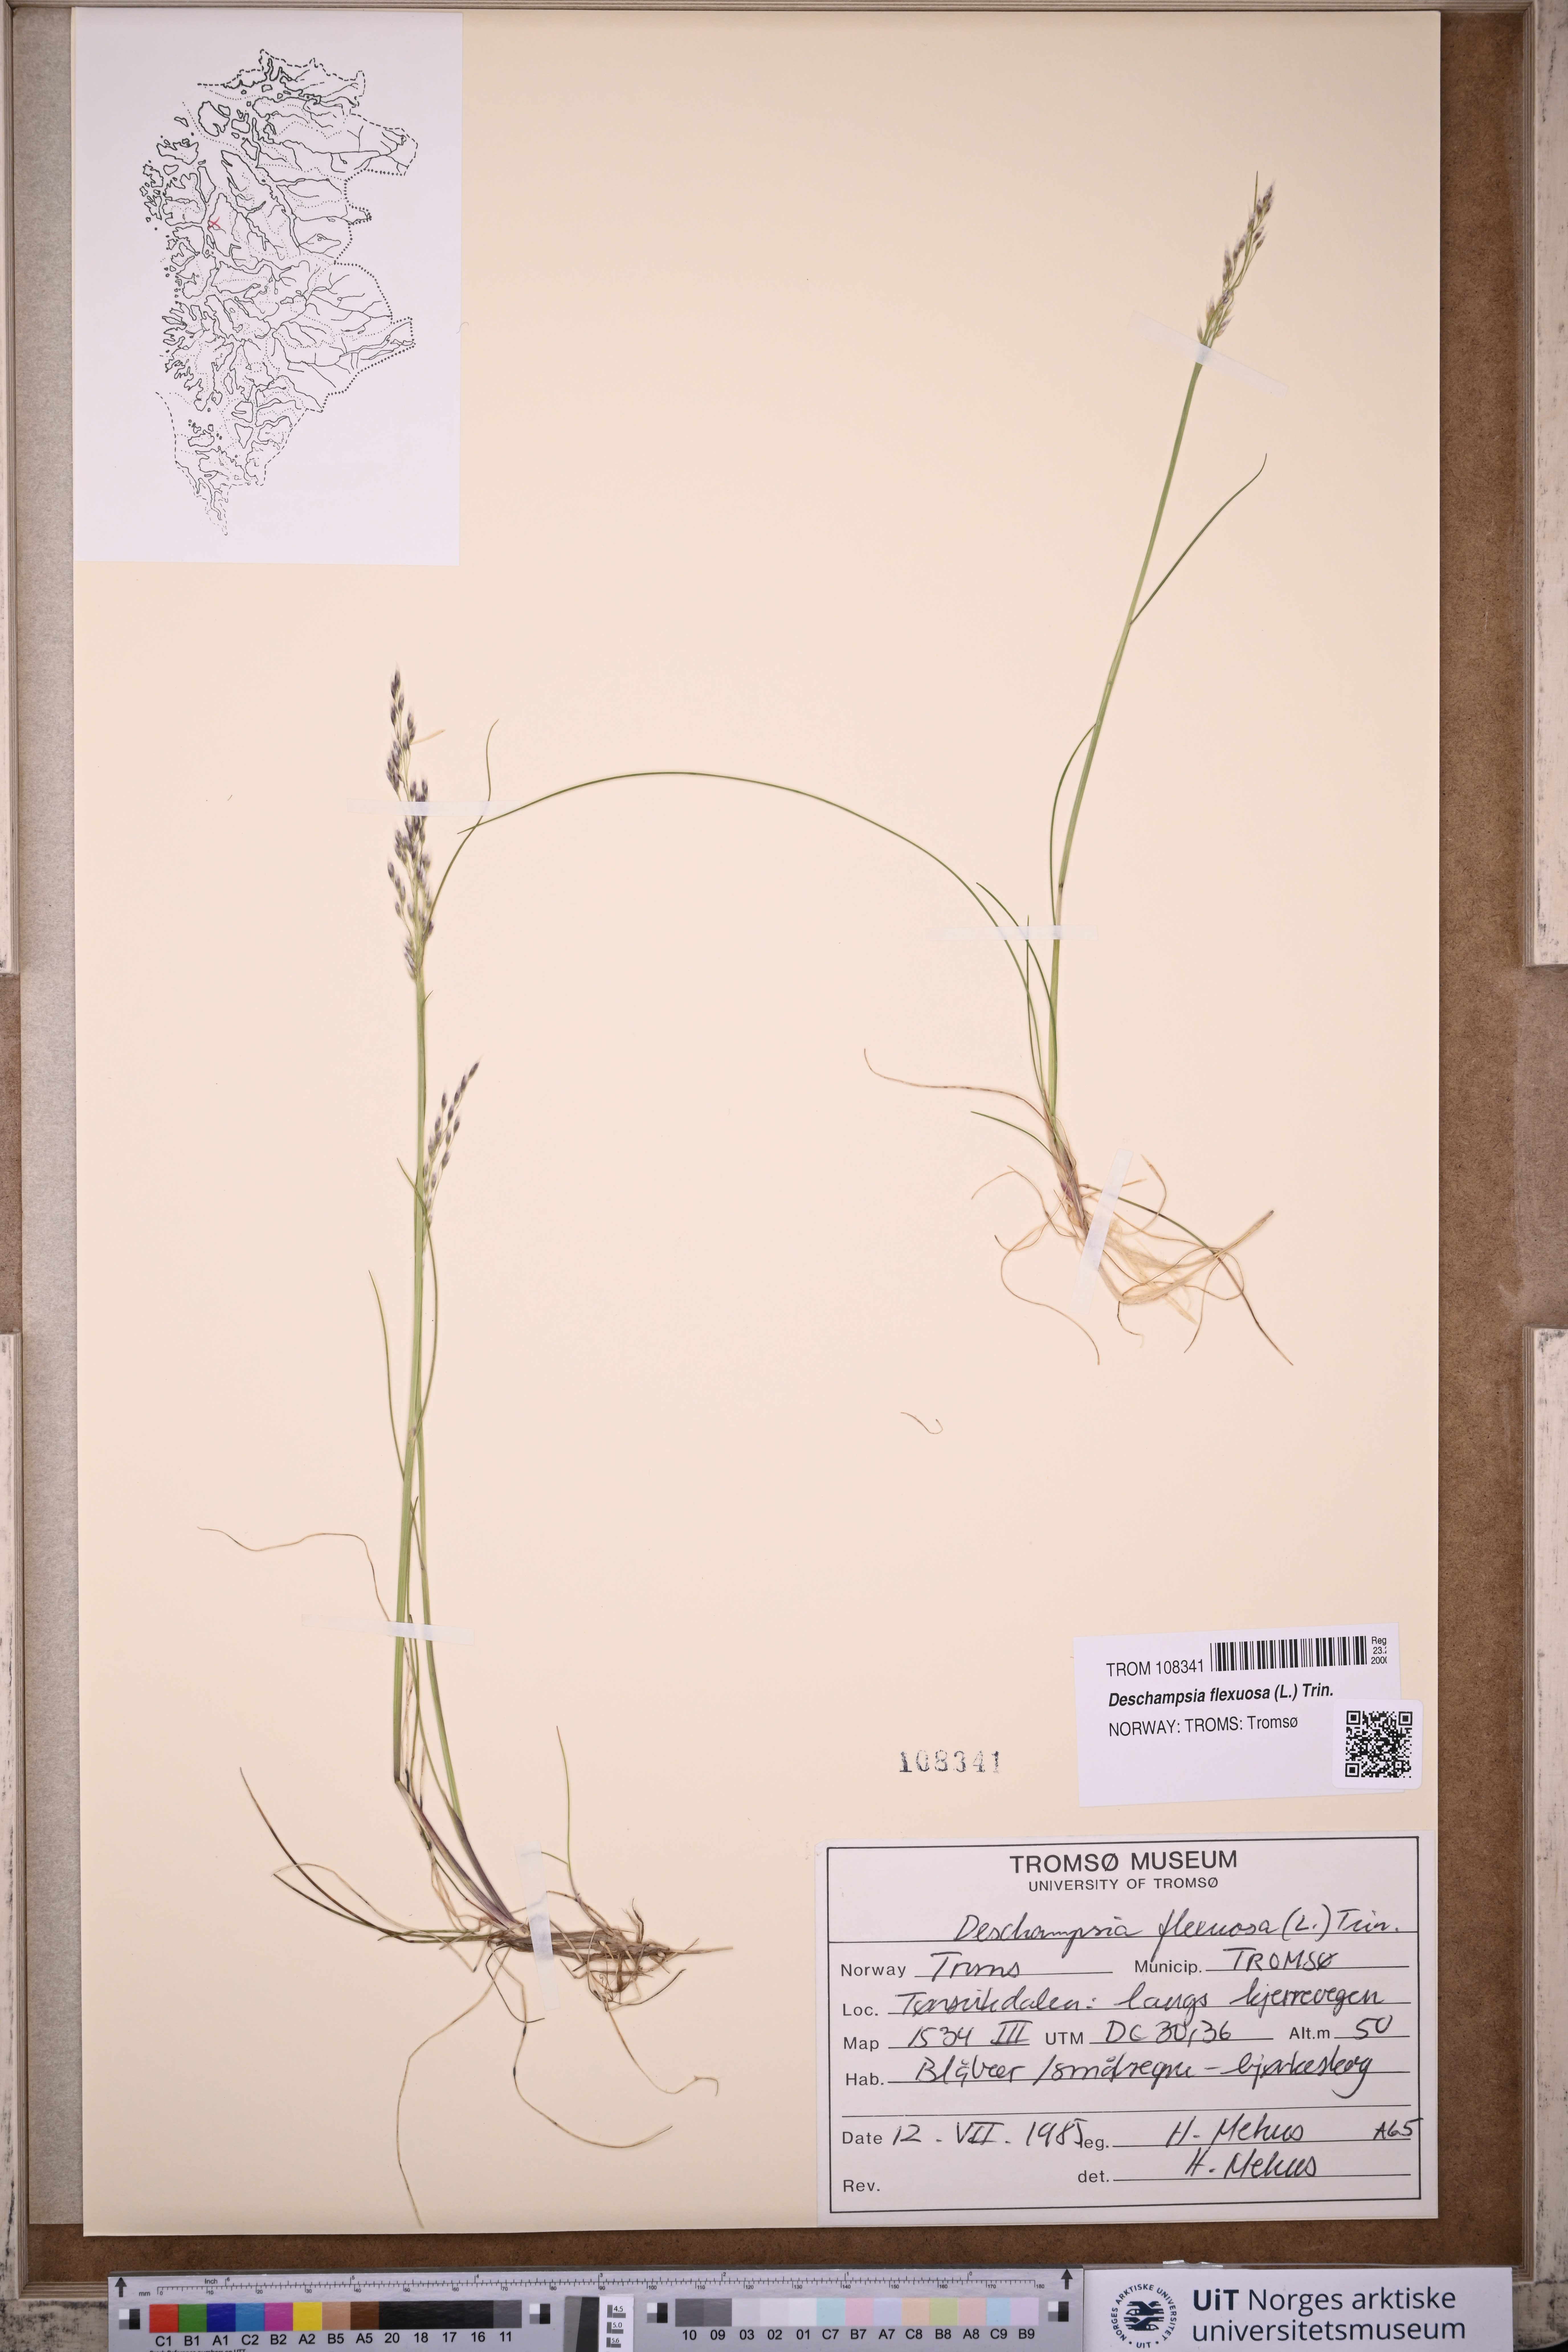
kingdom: Plantae
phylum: Tracheophyta
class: Liliopsida
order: Poales
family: Poaceae
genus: Avenella
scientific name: Avenella flexuosa
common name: Wavy hairgrass
